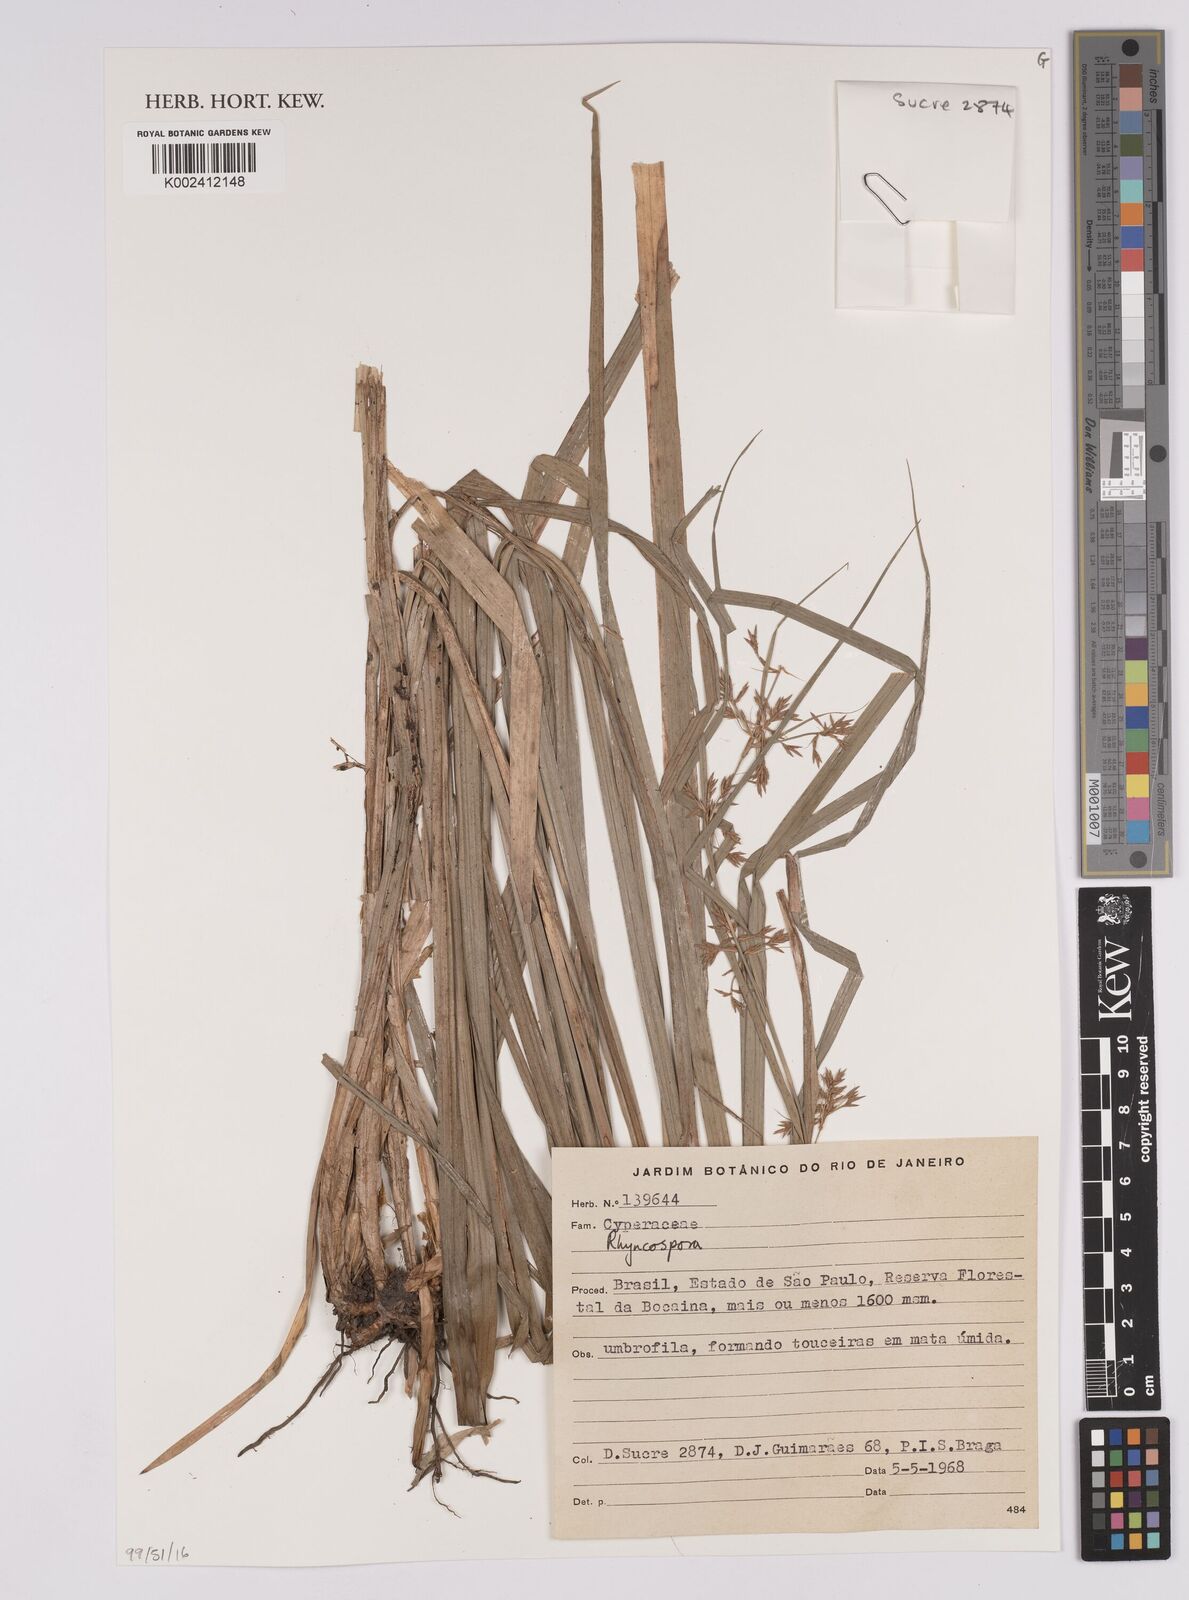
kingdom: Plantae
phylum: Tracheophyta
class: Liliopsida
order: Poales
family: Cyperaceae
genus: Rhynchospora
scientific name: Rhynchospora
